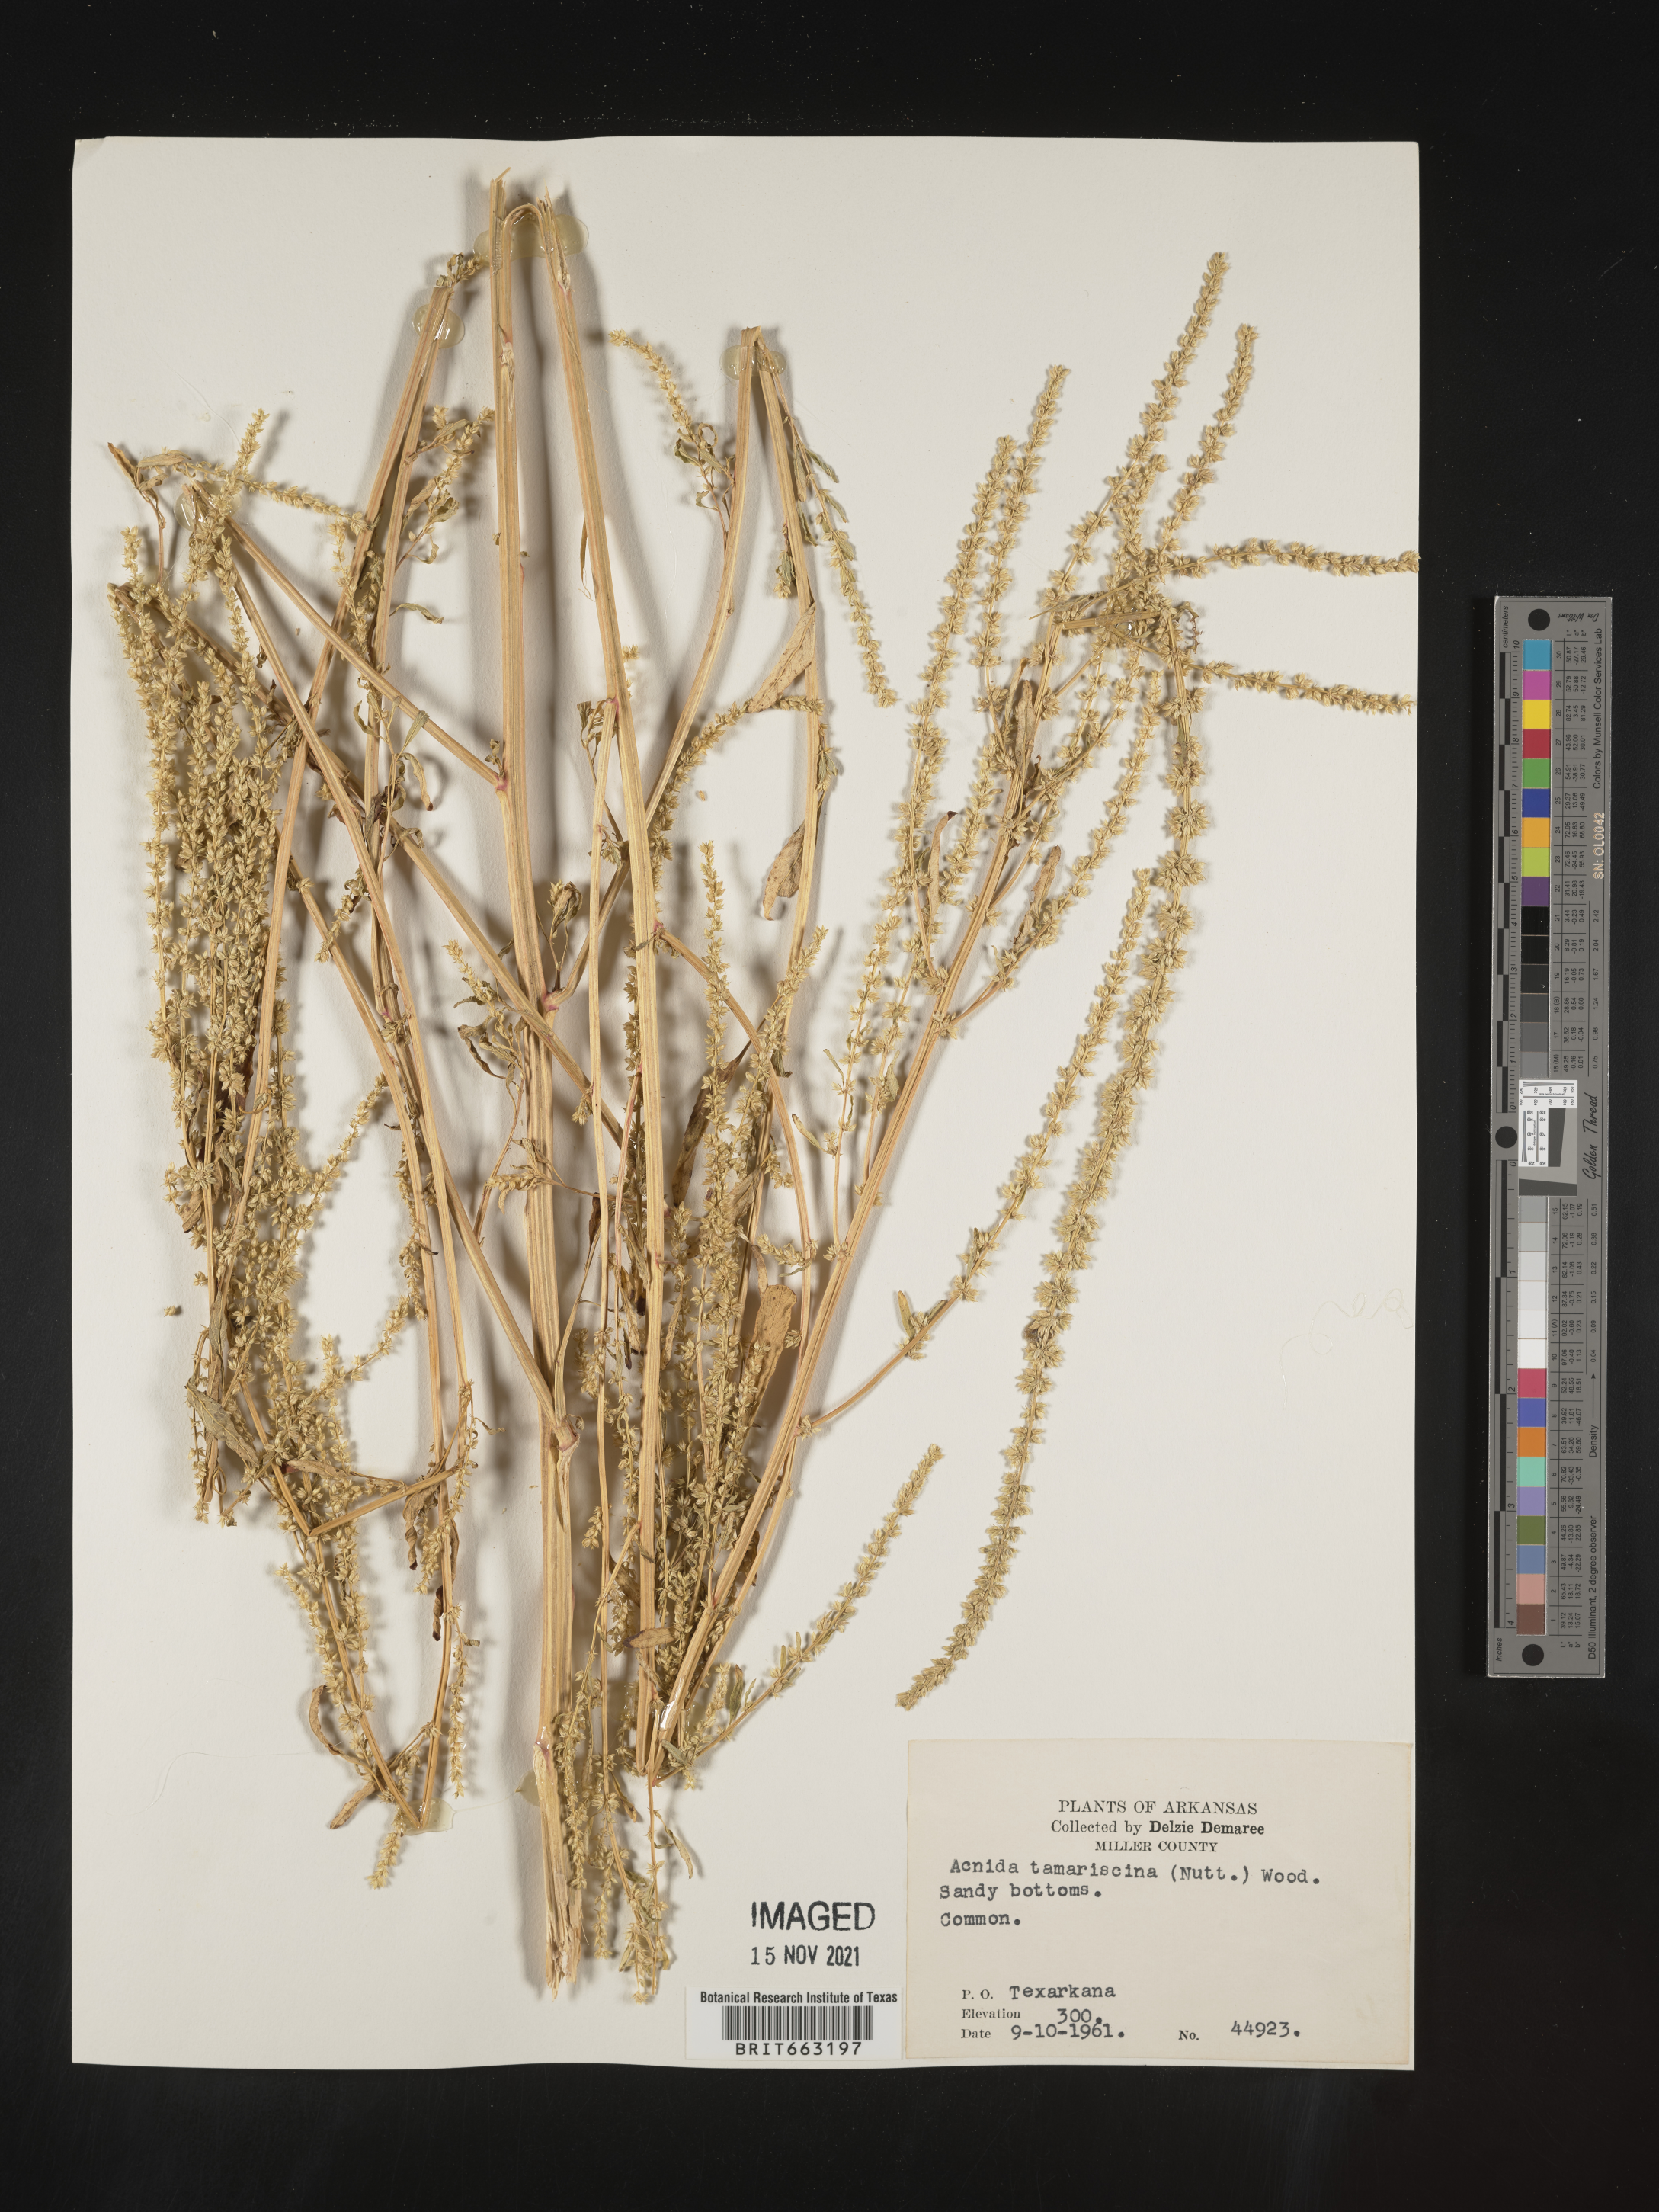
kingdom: Plantae
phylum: Tracheophyta
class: Magnoliopsida
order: Caryophyllales
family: Amaranthaceae
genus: Amaranthus
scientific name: Amaranthus tamariscinus
